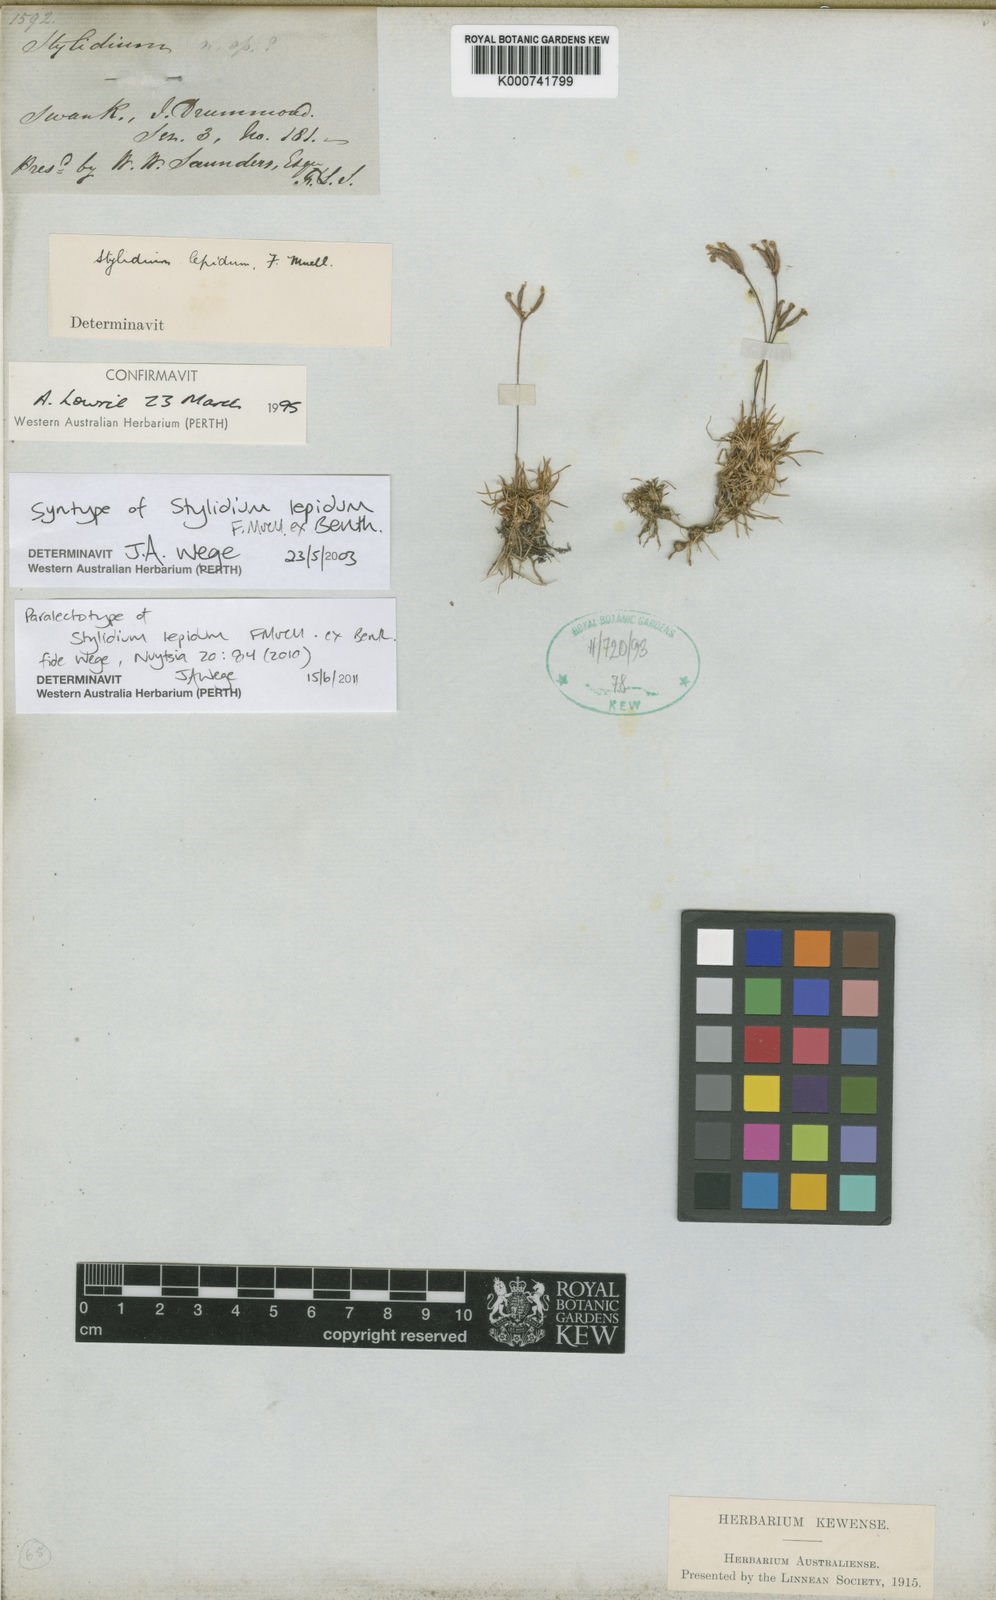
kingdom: Plantae
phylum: Tracheophyta
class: Magnoliopsida
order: Asterales
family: Stylidiaceae
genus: Stylidium
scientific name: Stylidium lepidum
